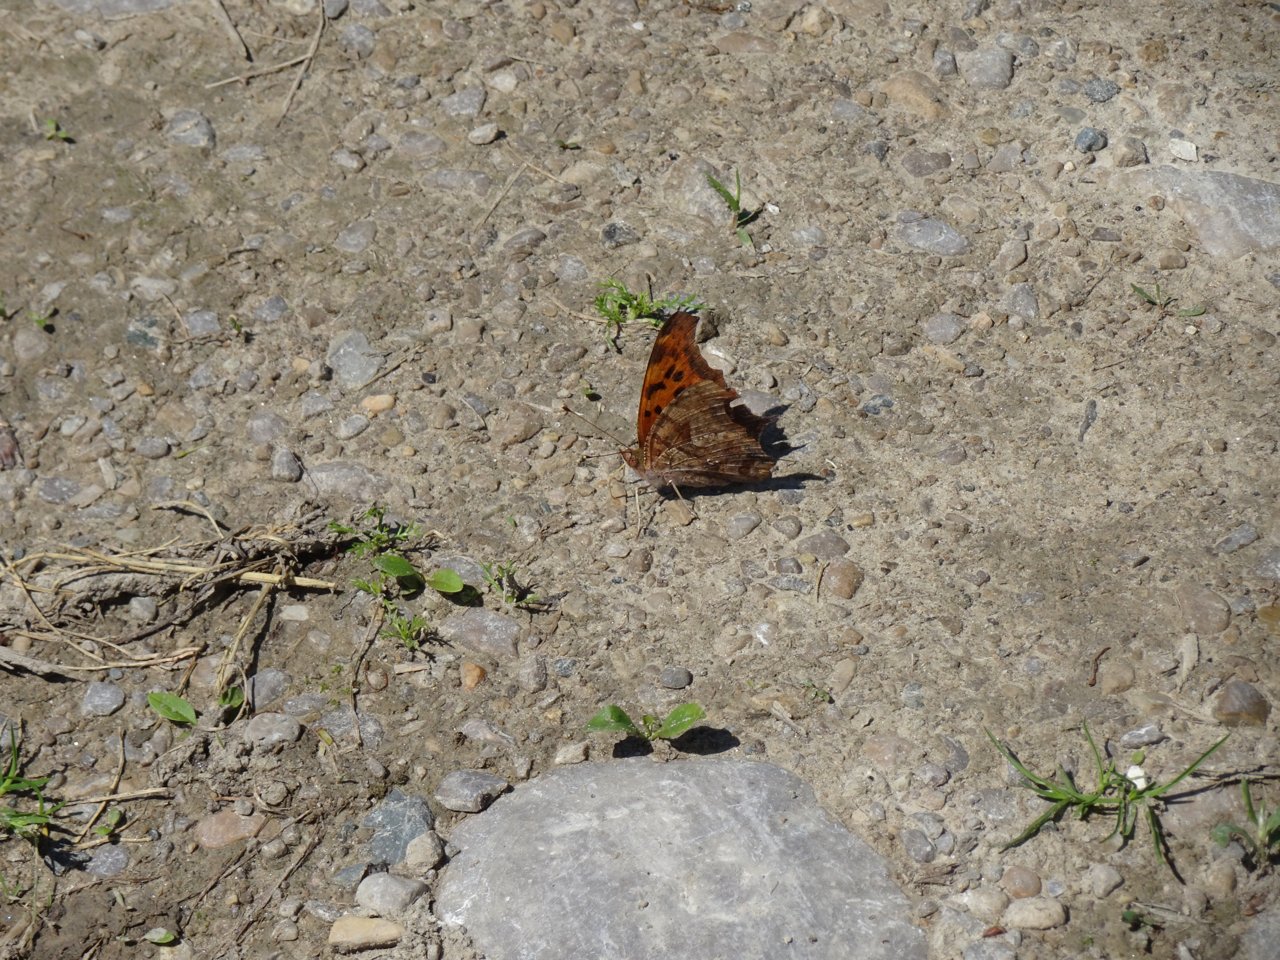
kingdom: Animalia
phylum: Arthropoda
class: Insecta
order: Lepidoptera
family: Nymphalidae
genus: Polygonia
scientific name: Polygonia interrogationis
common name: Question Mark
